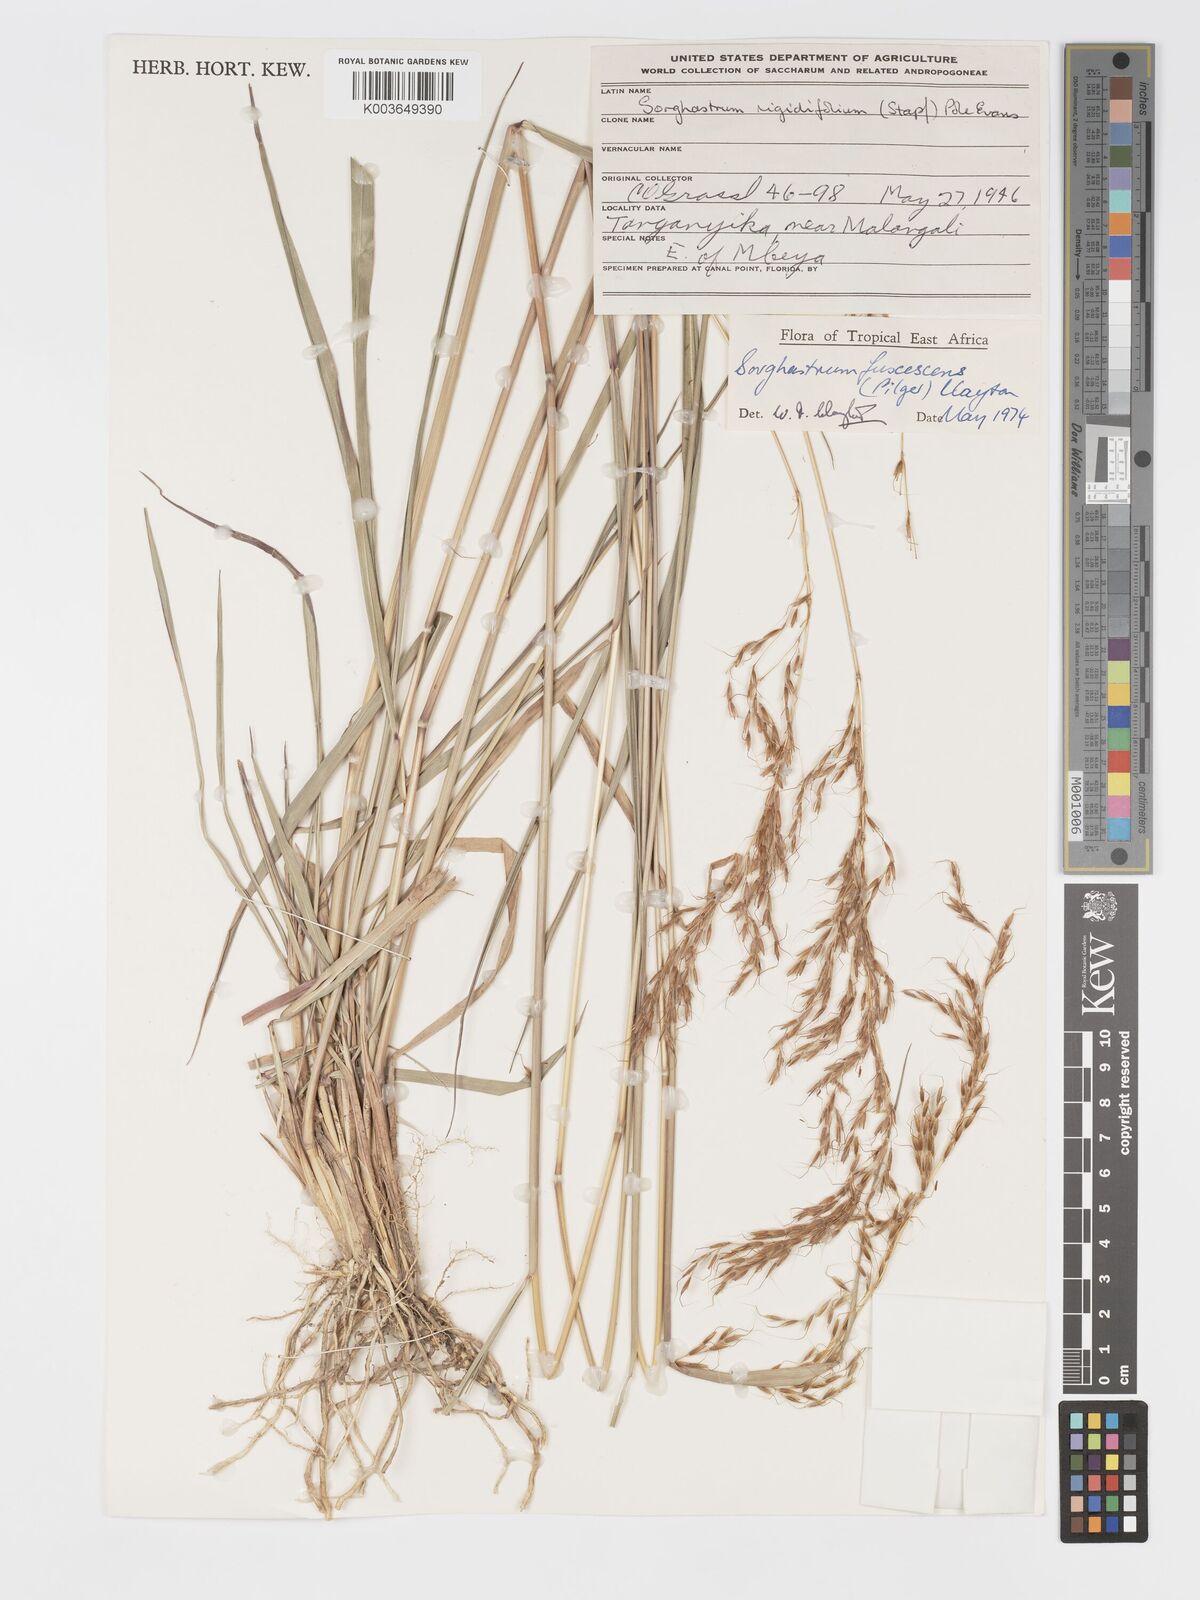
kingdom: Plantae
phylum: Tracheophyta
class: Liliopsida
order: Poales
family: Poaceae
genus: Sorghastrum
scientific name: Sorghastrum fuscescens
